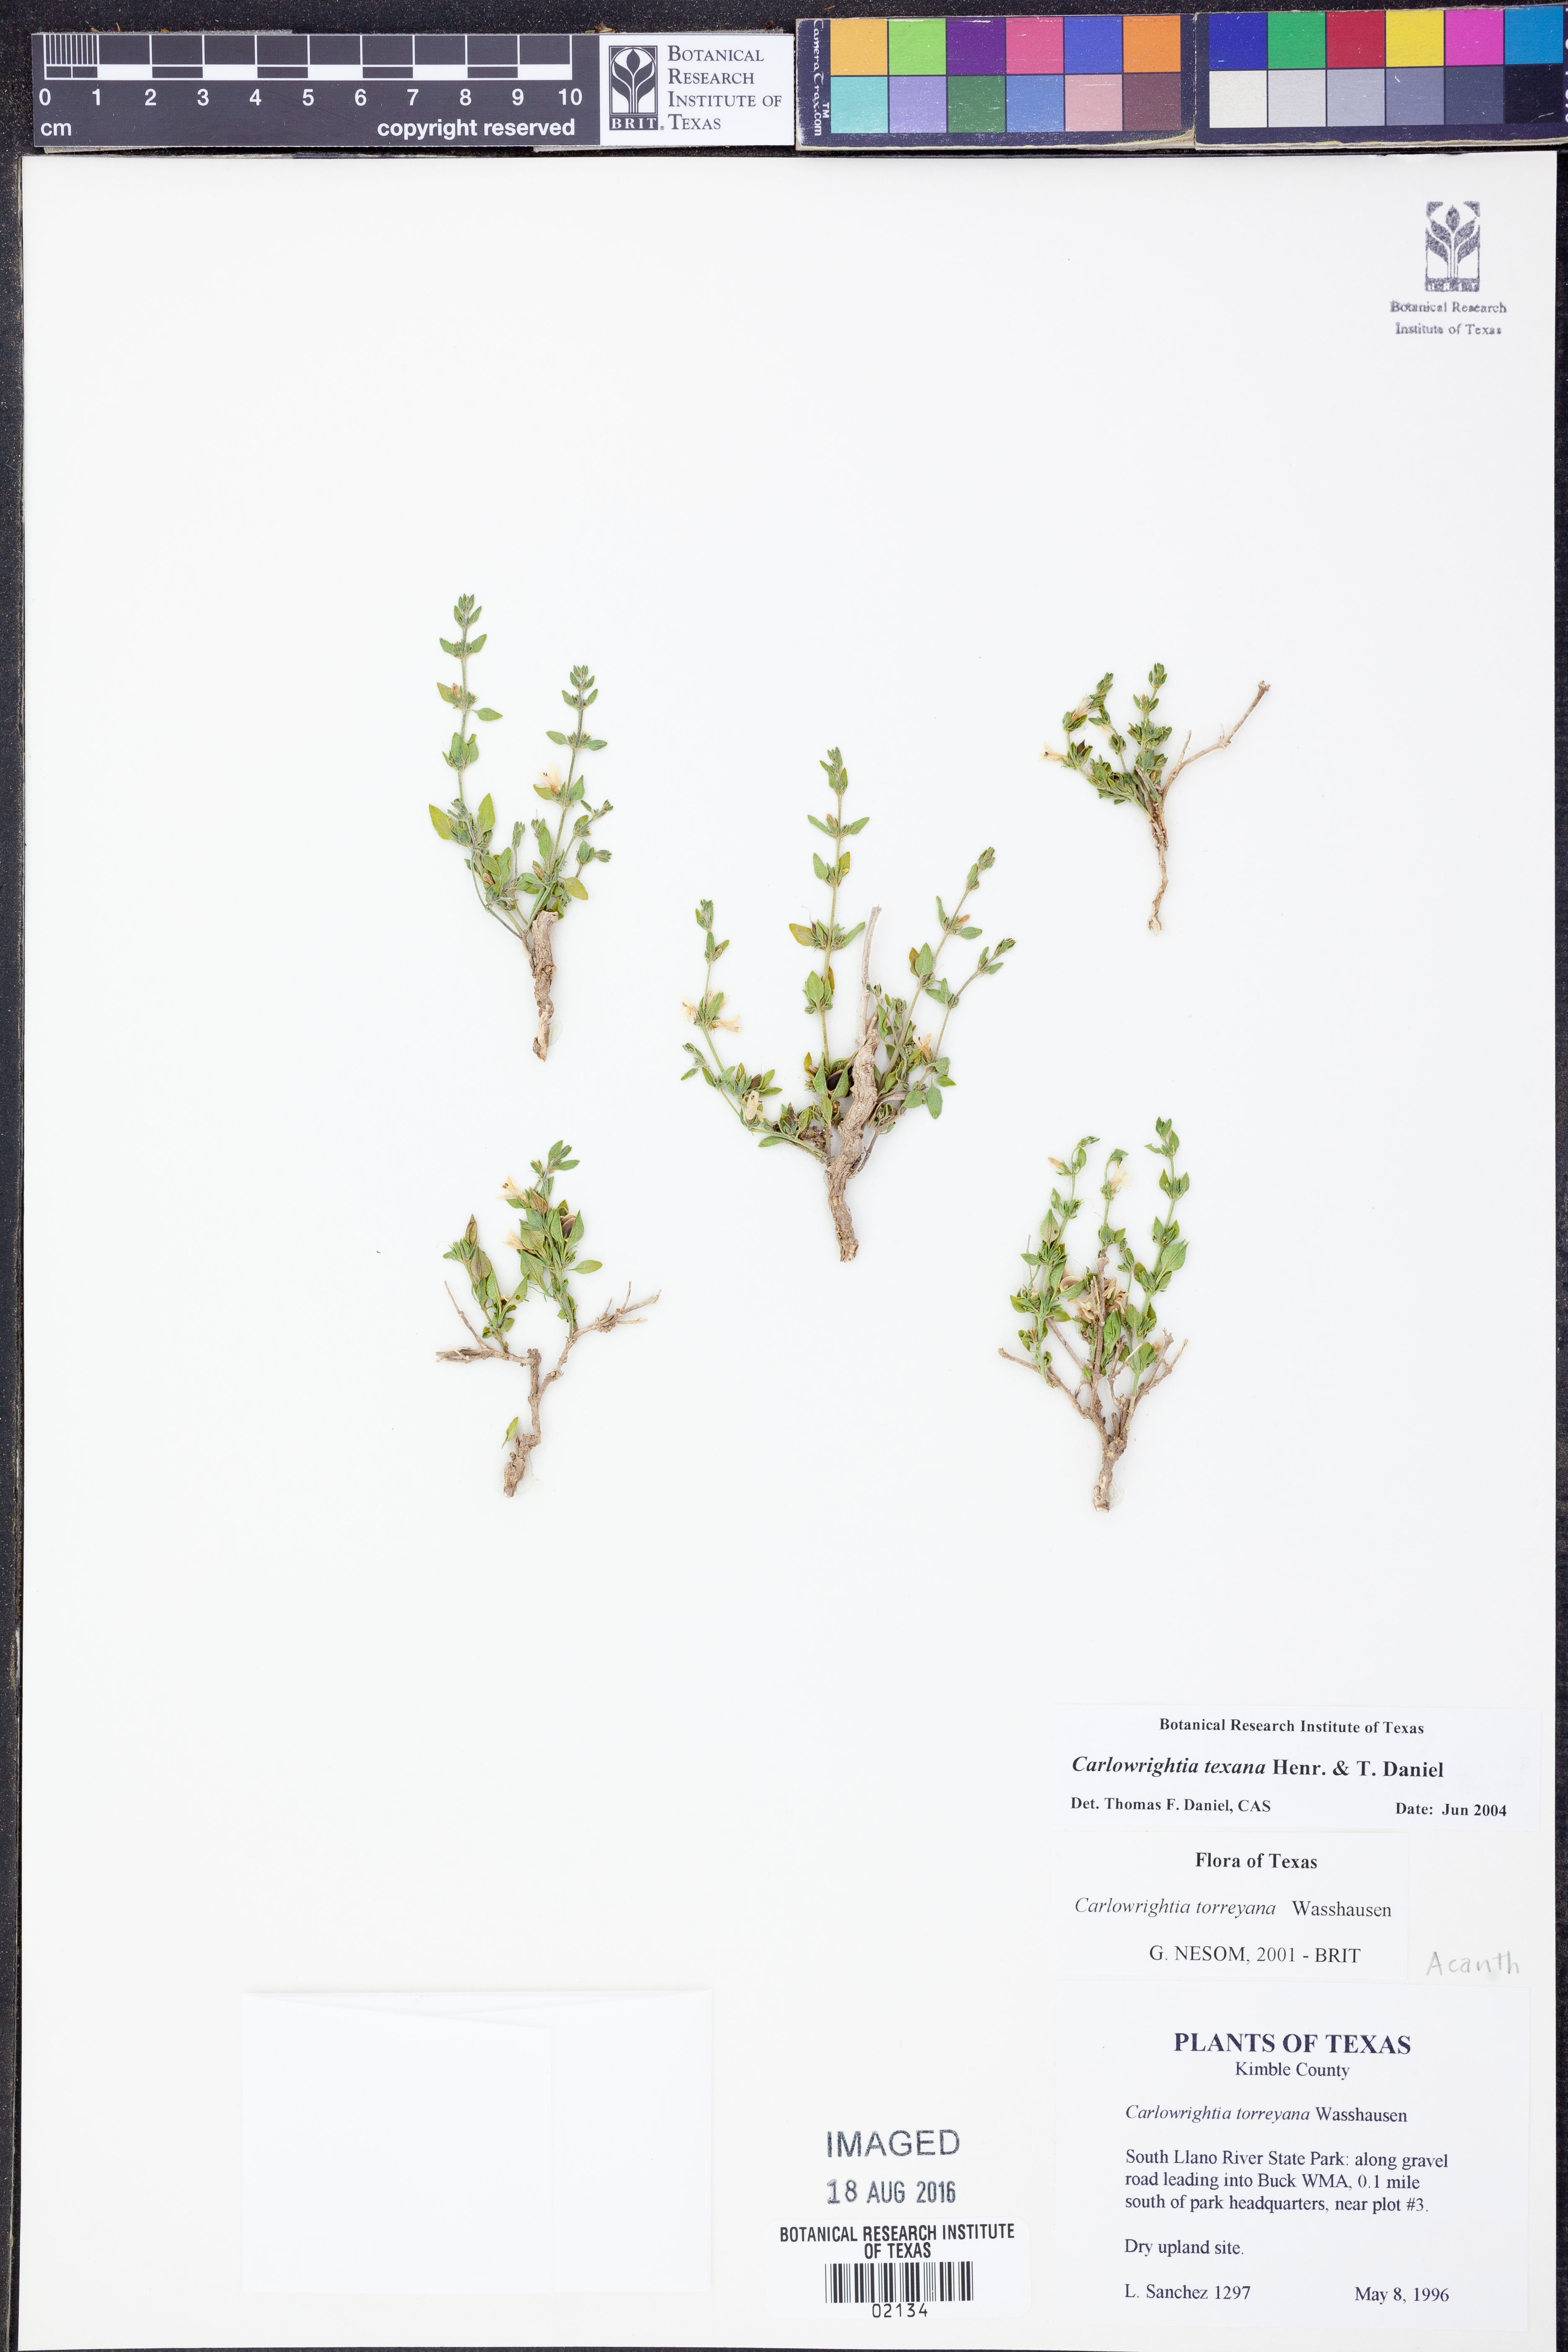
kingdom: Plantae
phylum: Tracheophyta
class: Magnoliopsida
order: Lamiales
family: Acanthaceae
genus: Carlowrightia
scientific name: Carlowrightia texana
